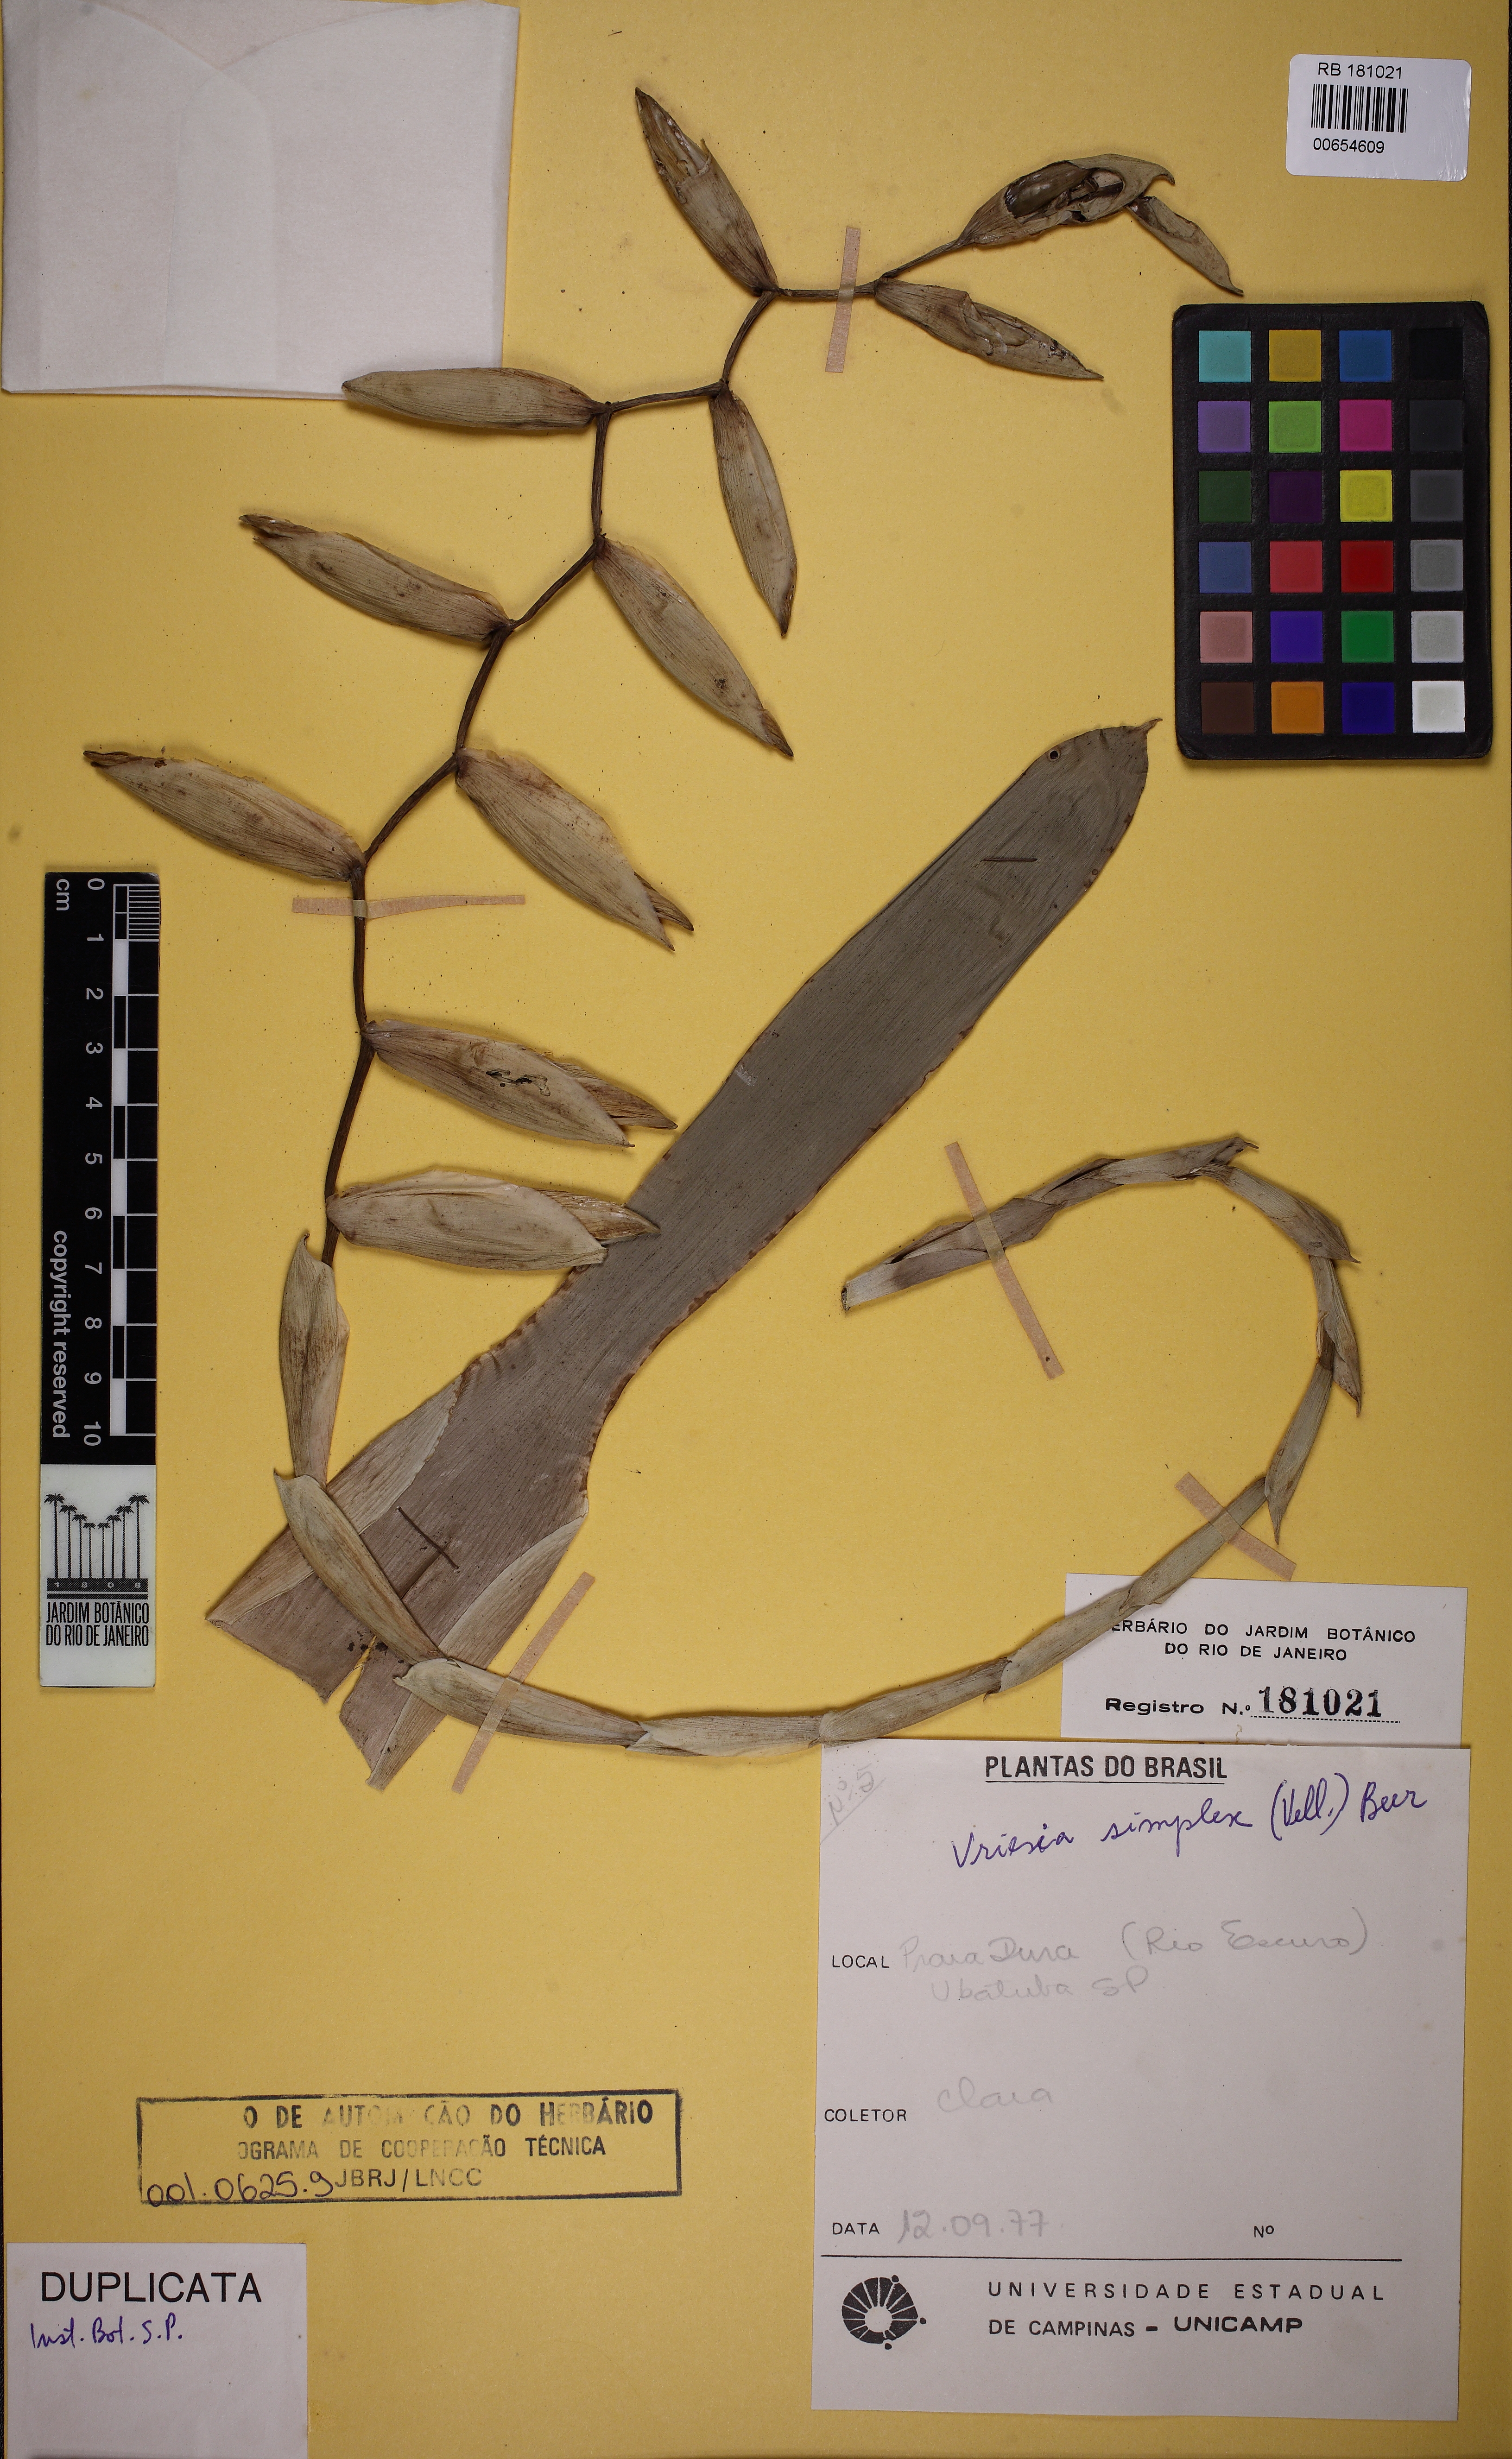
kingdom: Plantae
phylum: Tracheophyta
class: Liliopsida
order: Poales
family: Bromeliaceae
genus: Vriesea
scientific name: Vriesea simplex
